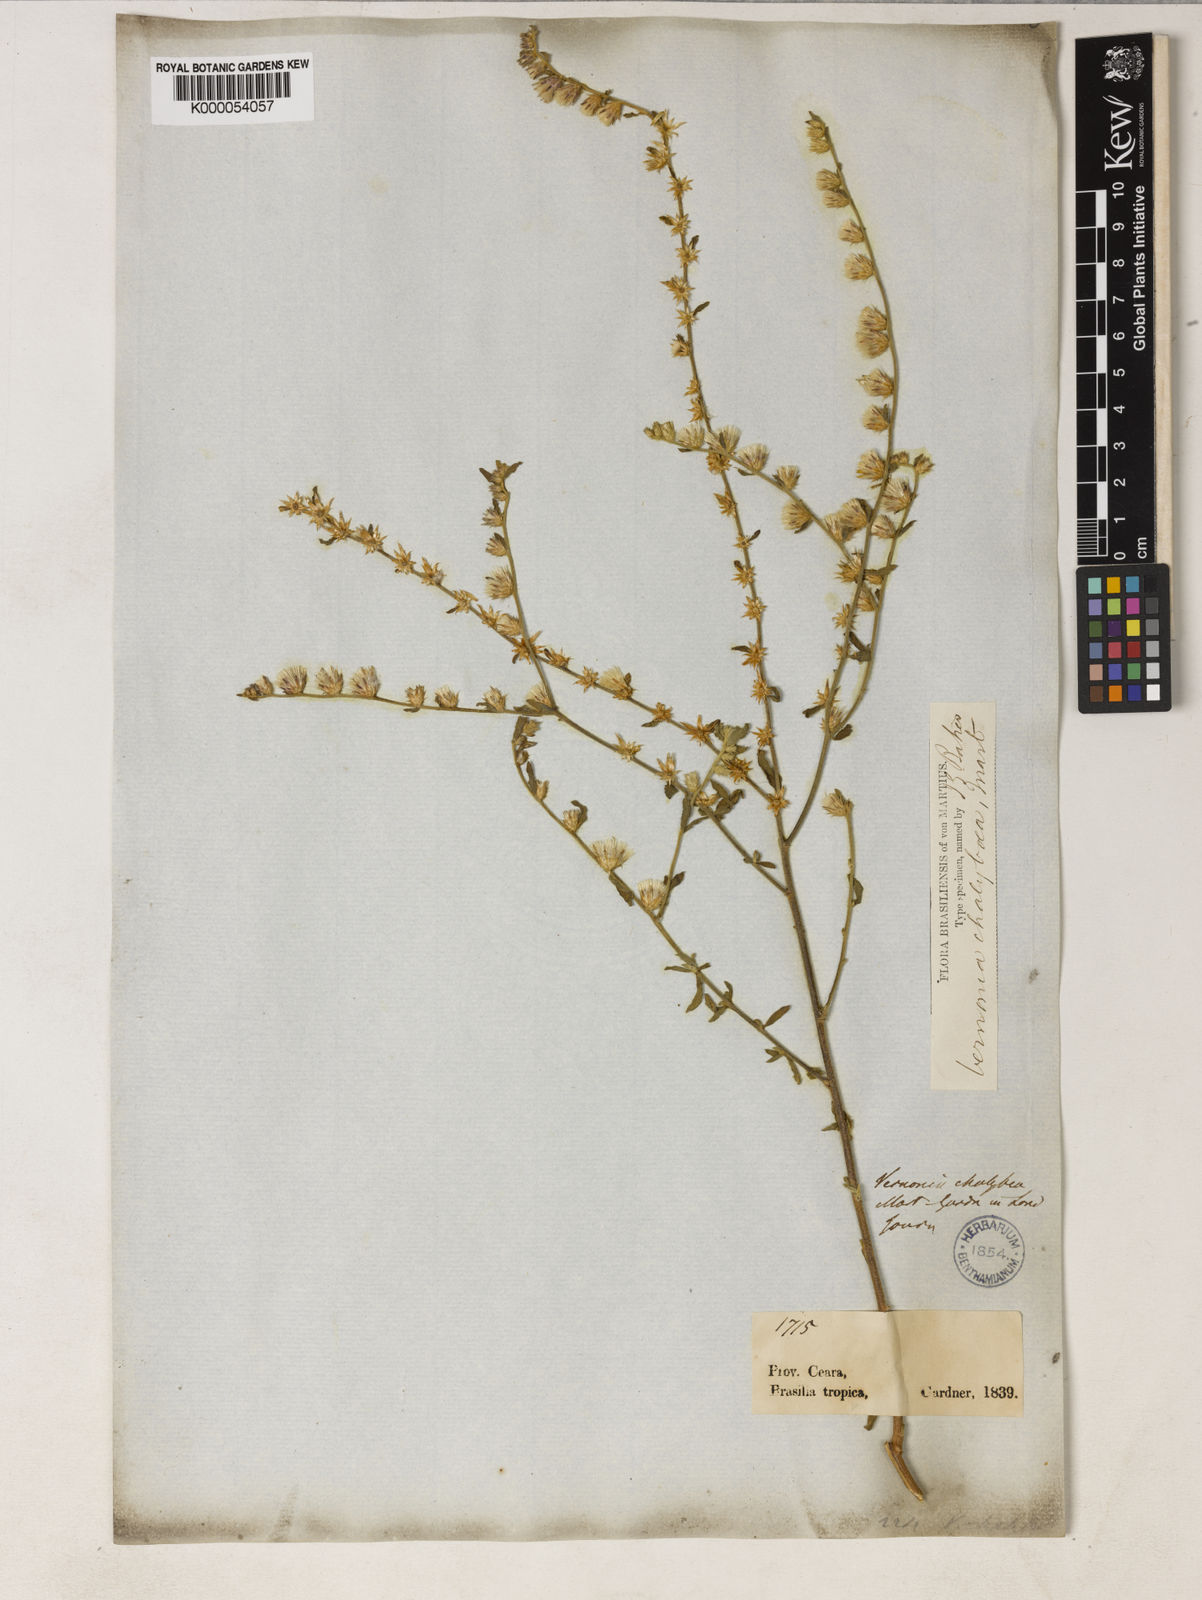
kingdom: Plantae
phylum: Tracheophyta
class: Magnoliopsida
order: Asterales
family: Asteraceae
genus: Lepidaploa
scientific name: Lepidaploa chalybaea
